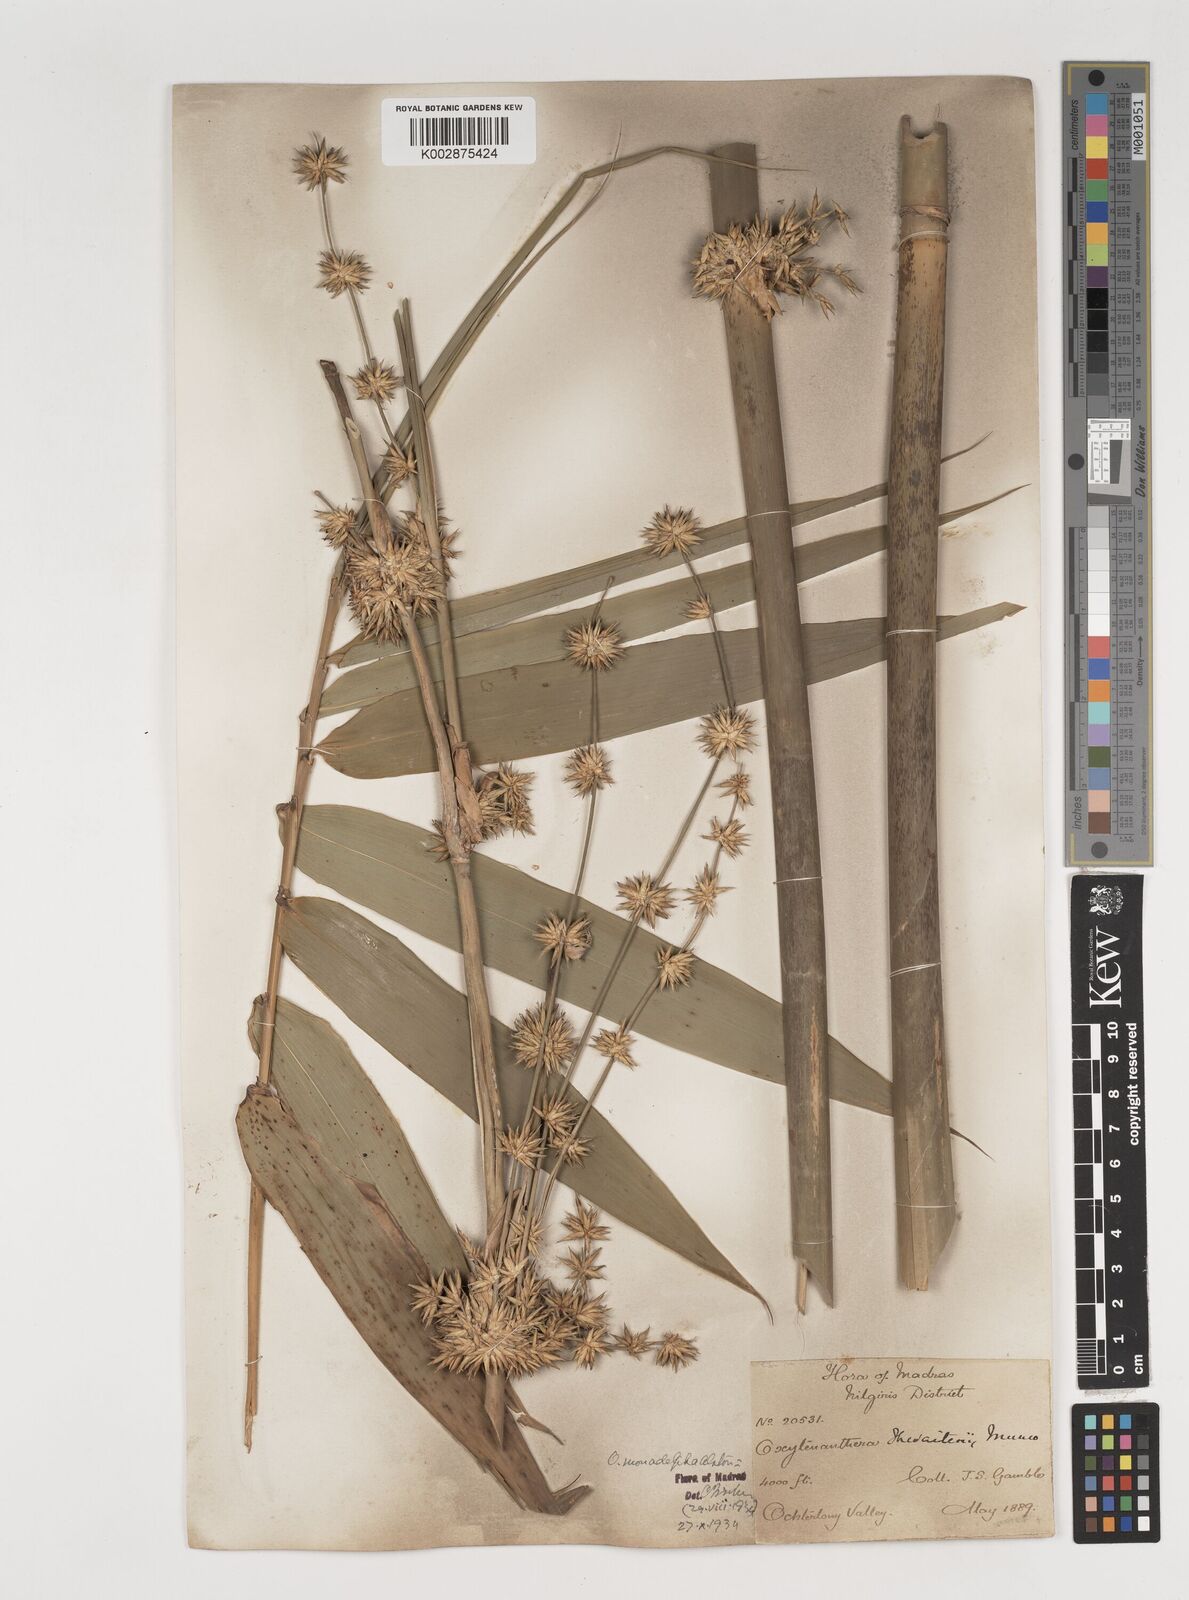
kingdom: Plantae
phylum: Tracheophyta
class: Liliopsida
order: Poales
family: Poaceae
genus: Pseudoxytenanthera
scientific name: Pseudoxytenanthera monadelpha
